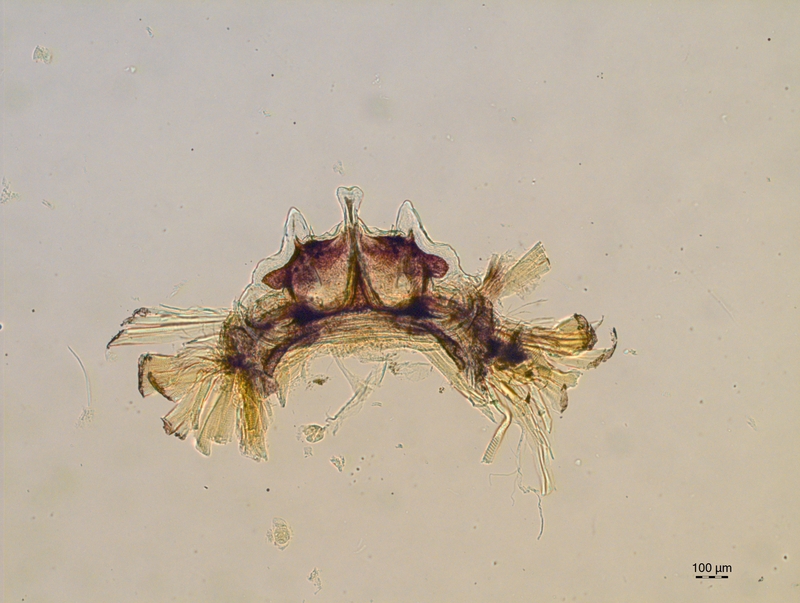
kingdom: Animalia
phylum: Arthropoda
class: Diplopoda
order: Chordeumatida
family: Craspedosomatidae
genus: Craspedosoma
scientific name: Craspedosoma rawlinsii
